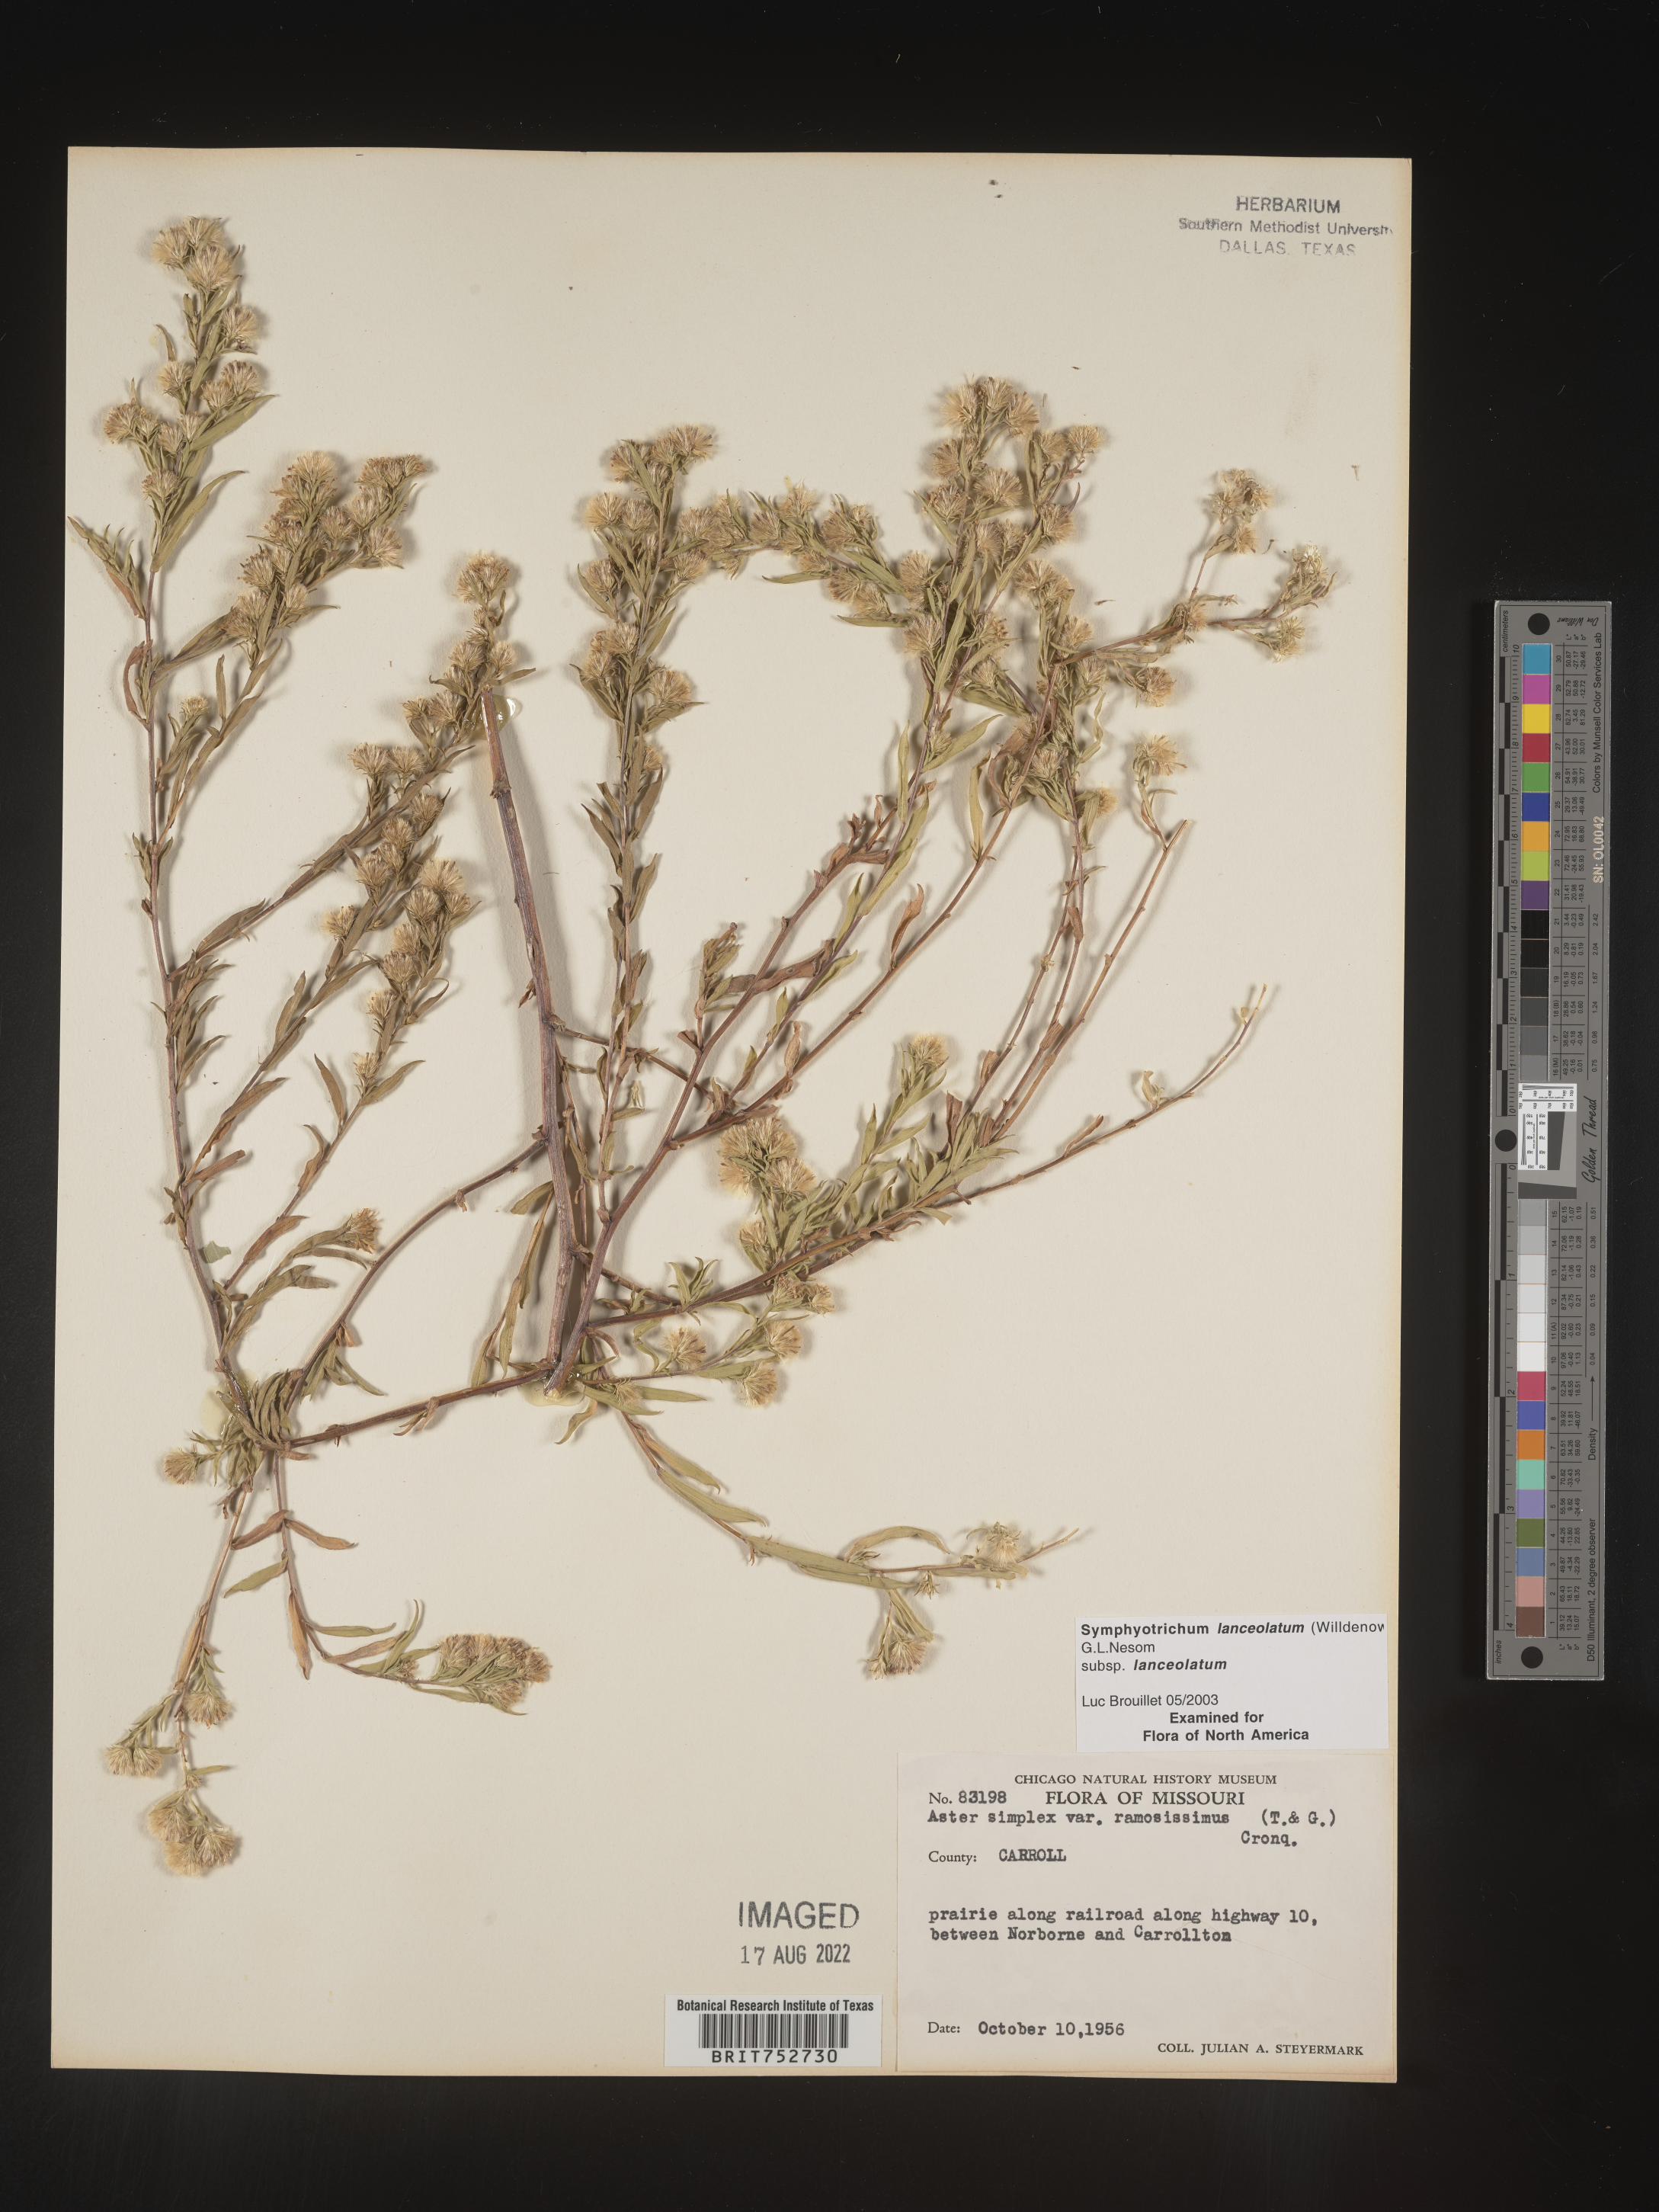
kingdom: Plantae
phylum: Tracheophyta
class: Magnoliopsida
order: Asterales
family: Asteraceae
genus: Symphyotrichum
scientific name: Symphyotrichum lanceolatum
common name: Panicled aster
